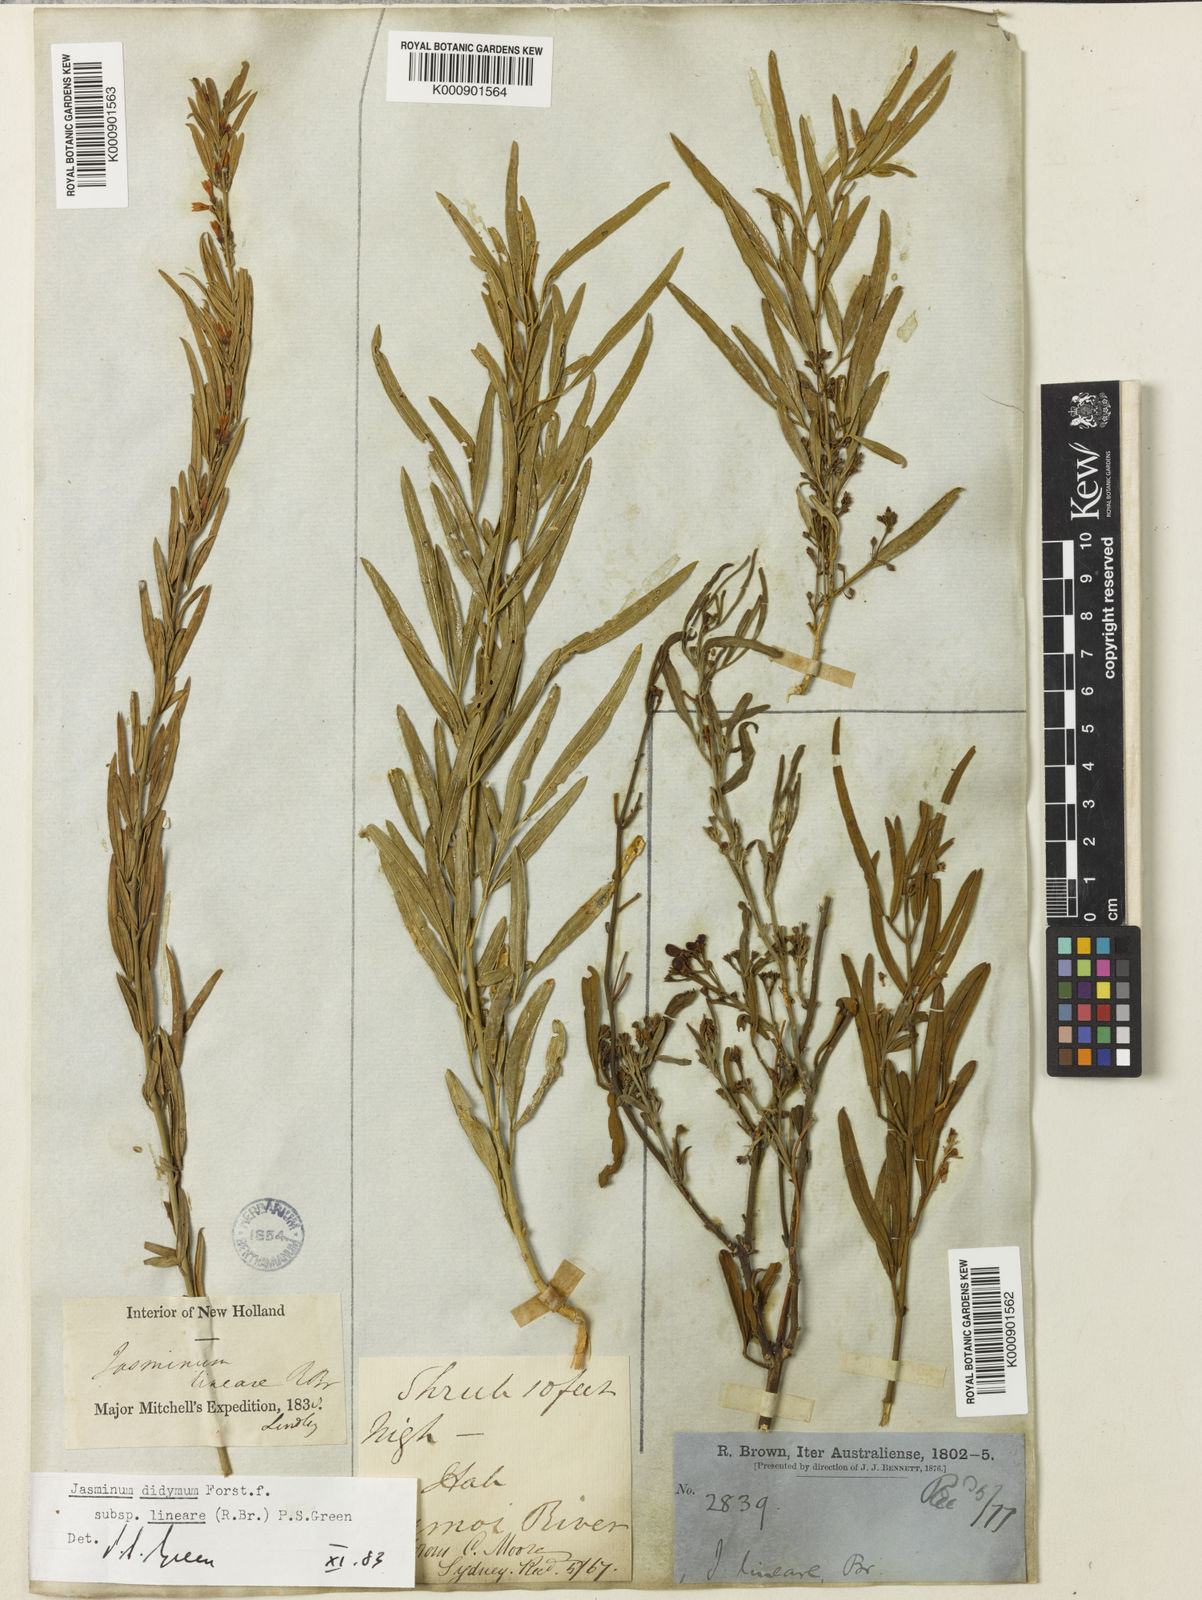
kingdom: Plantae
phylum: Tracheophyta
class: Magnoliopsida
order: Lamiales
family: Oleaceae
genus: Jasminum
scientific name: Jasminum didymum
